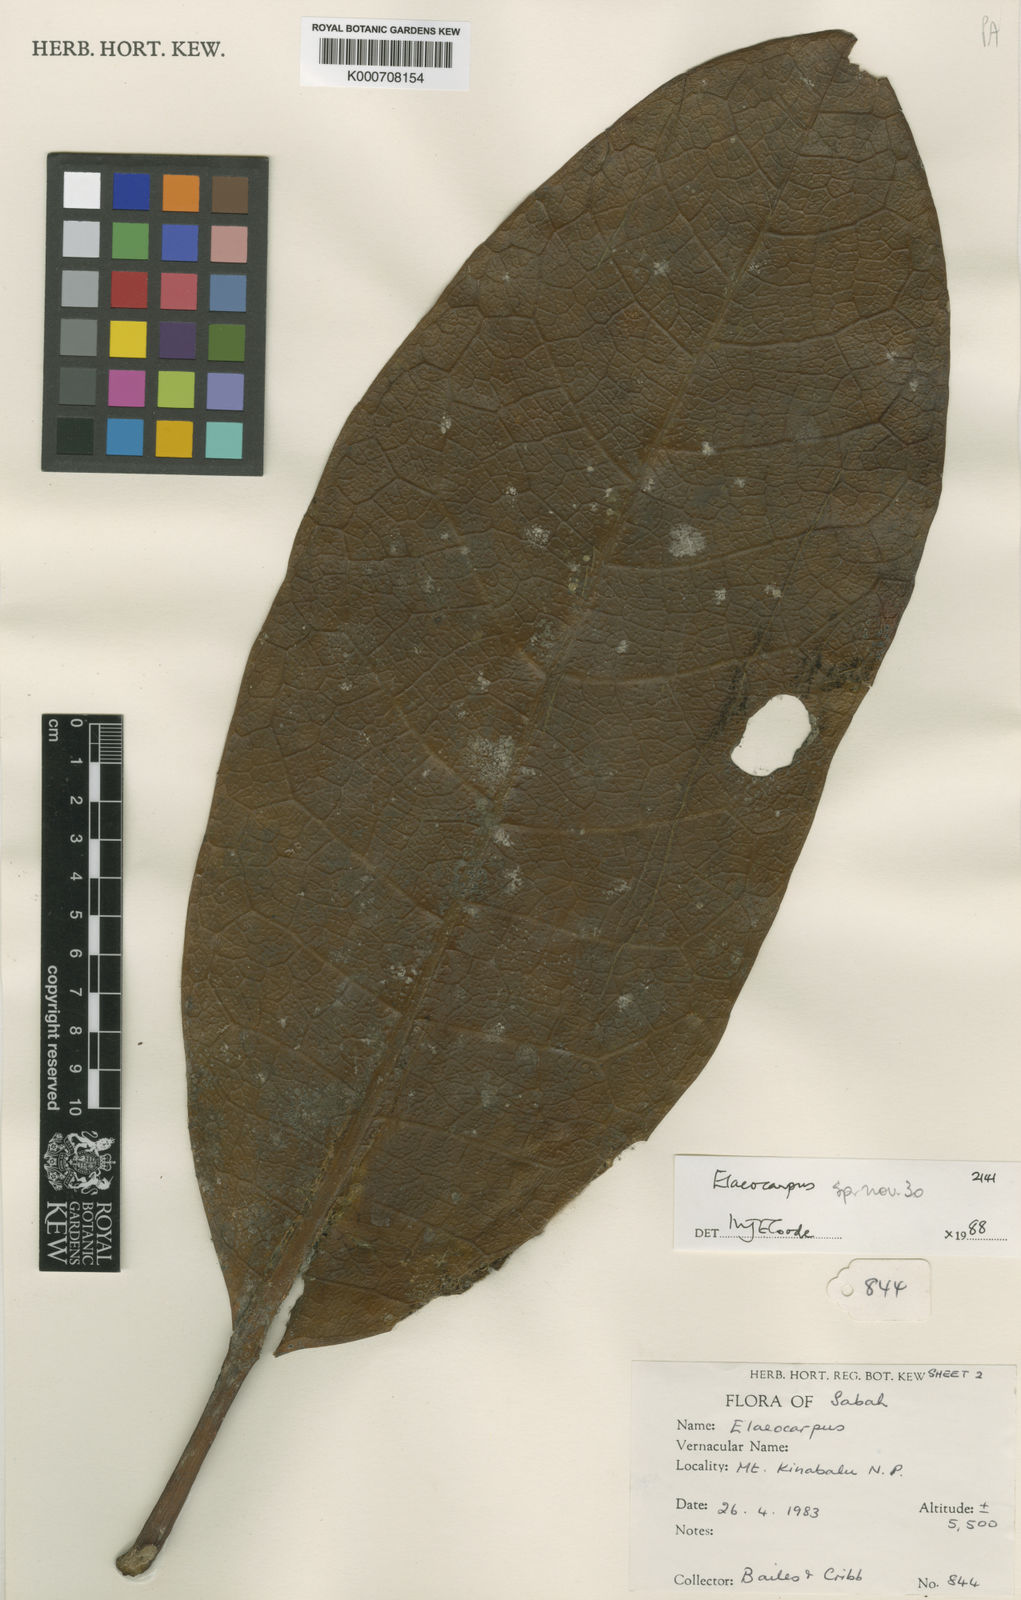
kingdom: Plantae
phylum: Tracheophyta
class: Magnoliopsida
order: Oxalidales
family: Elaeocarpaceae
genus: Elaeocarpus
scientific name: Elaeocarpus inopinatus
